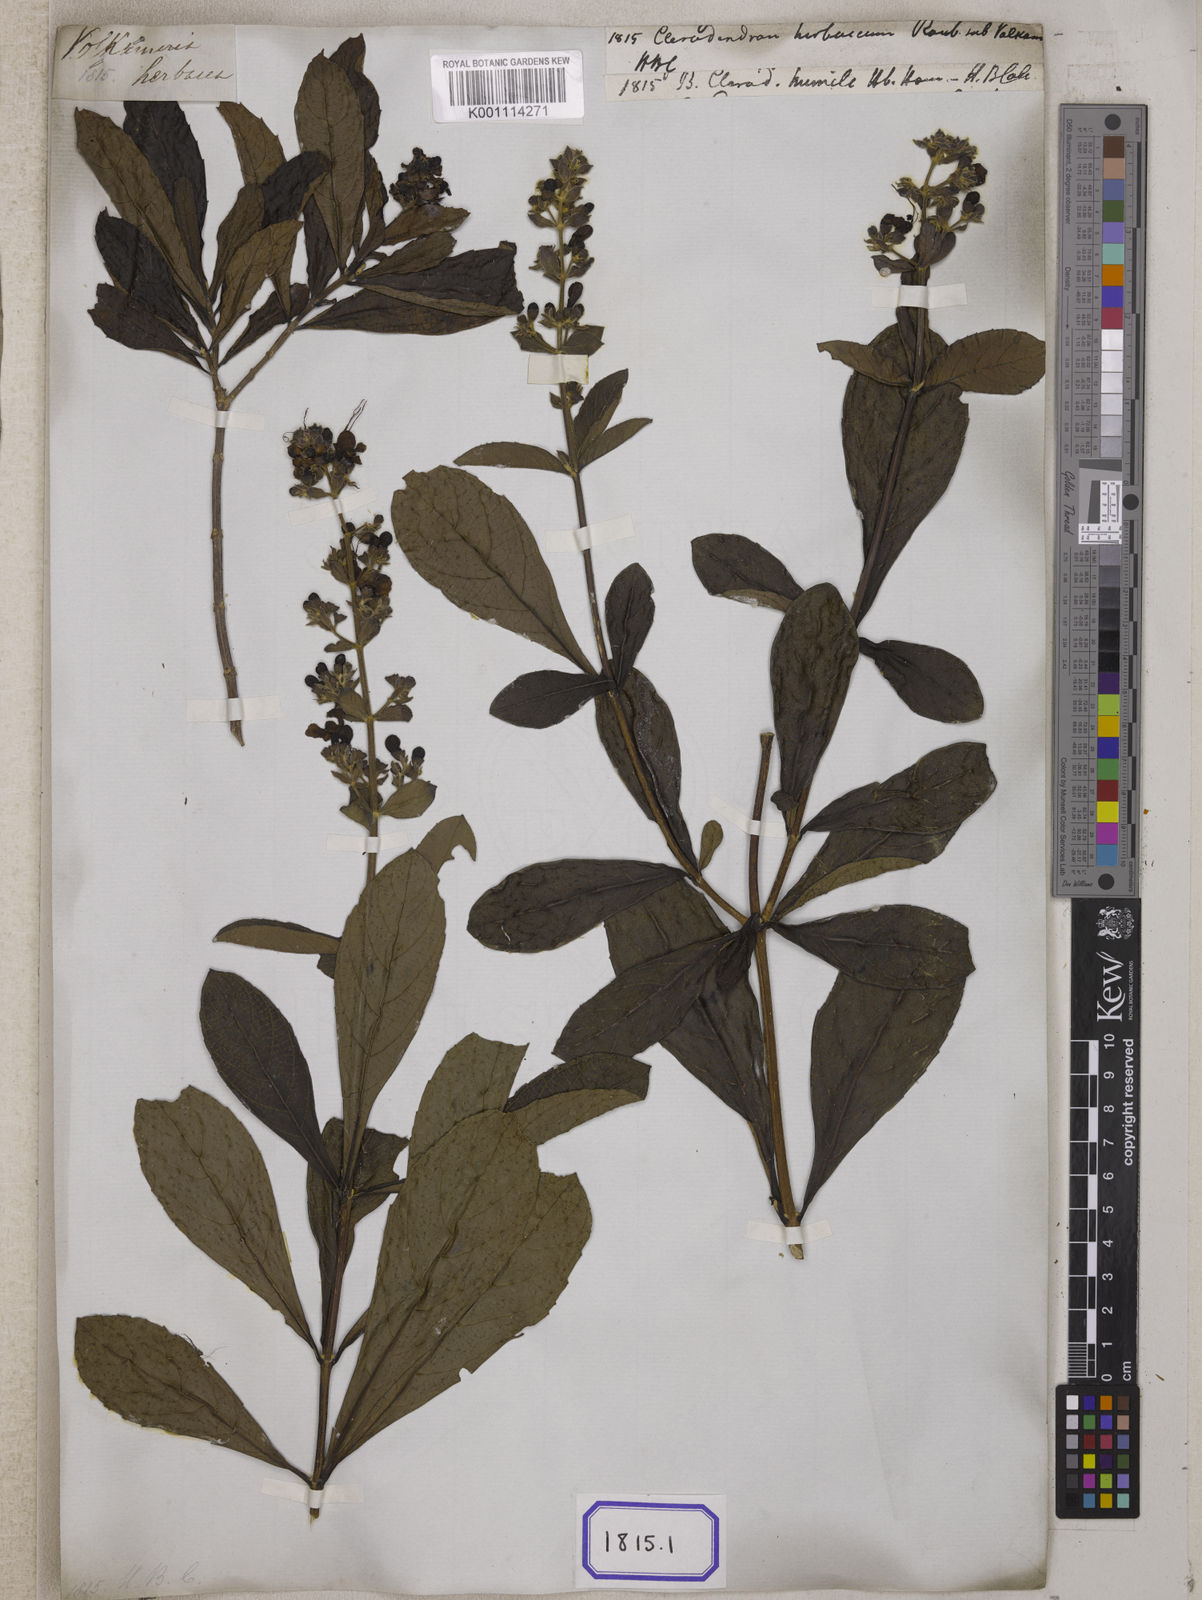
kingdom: Plantae
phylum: Tracheophyta
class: Magnoliopsida
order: Lamiales
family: Lamiaceae
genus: Clerodendrum
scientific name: Clerodendrum
